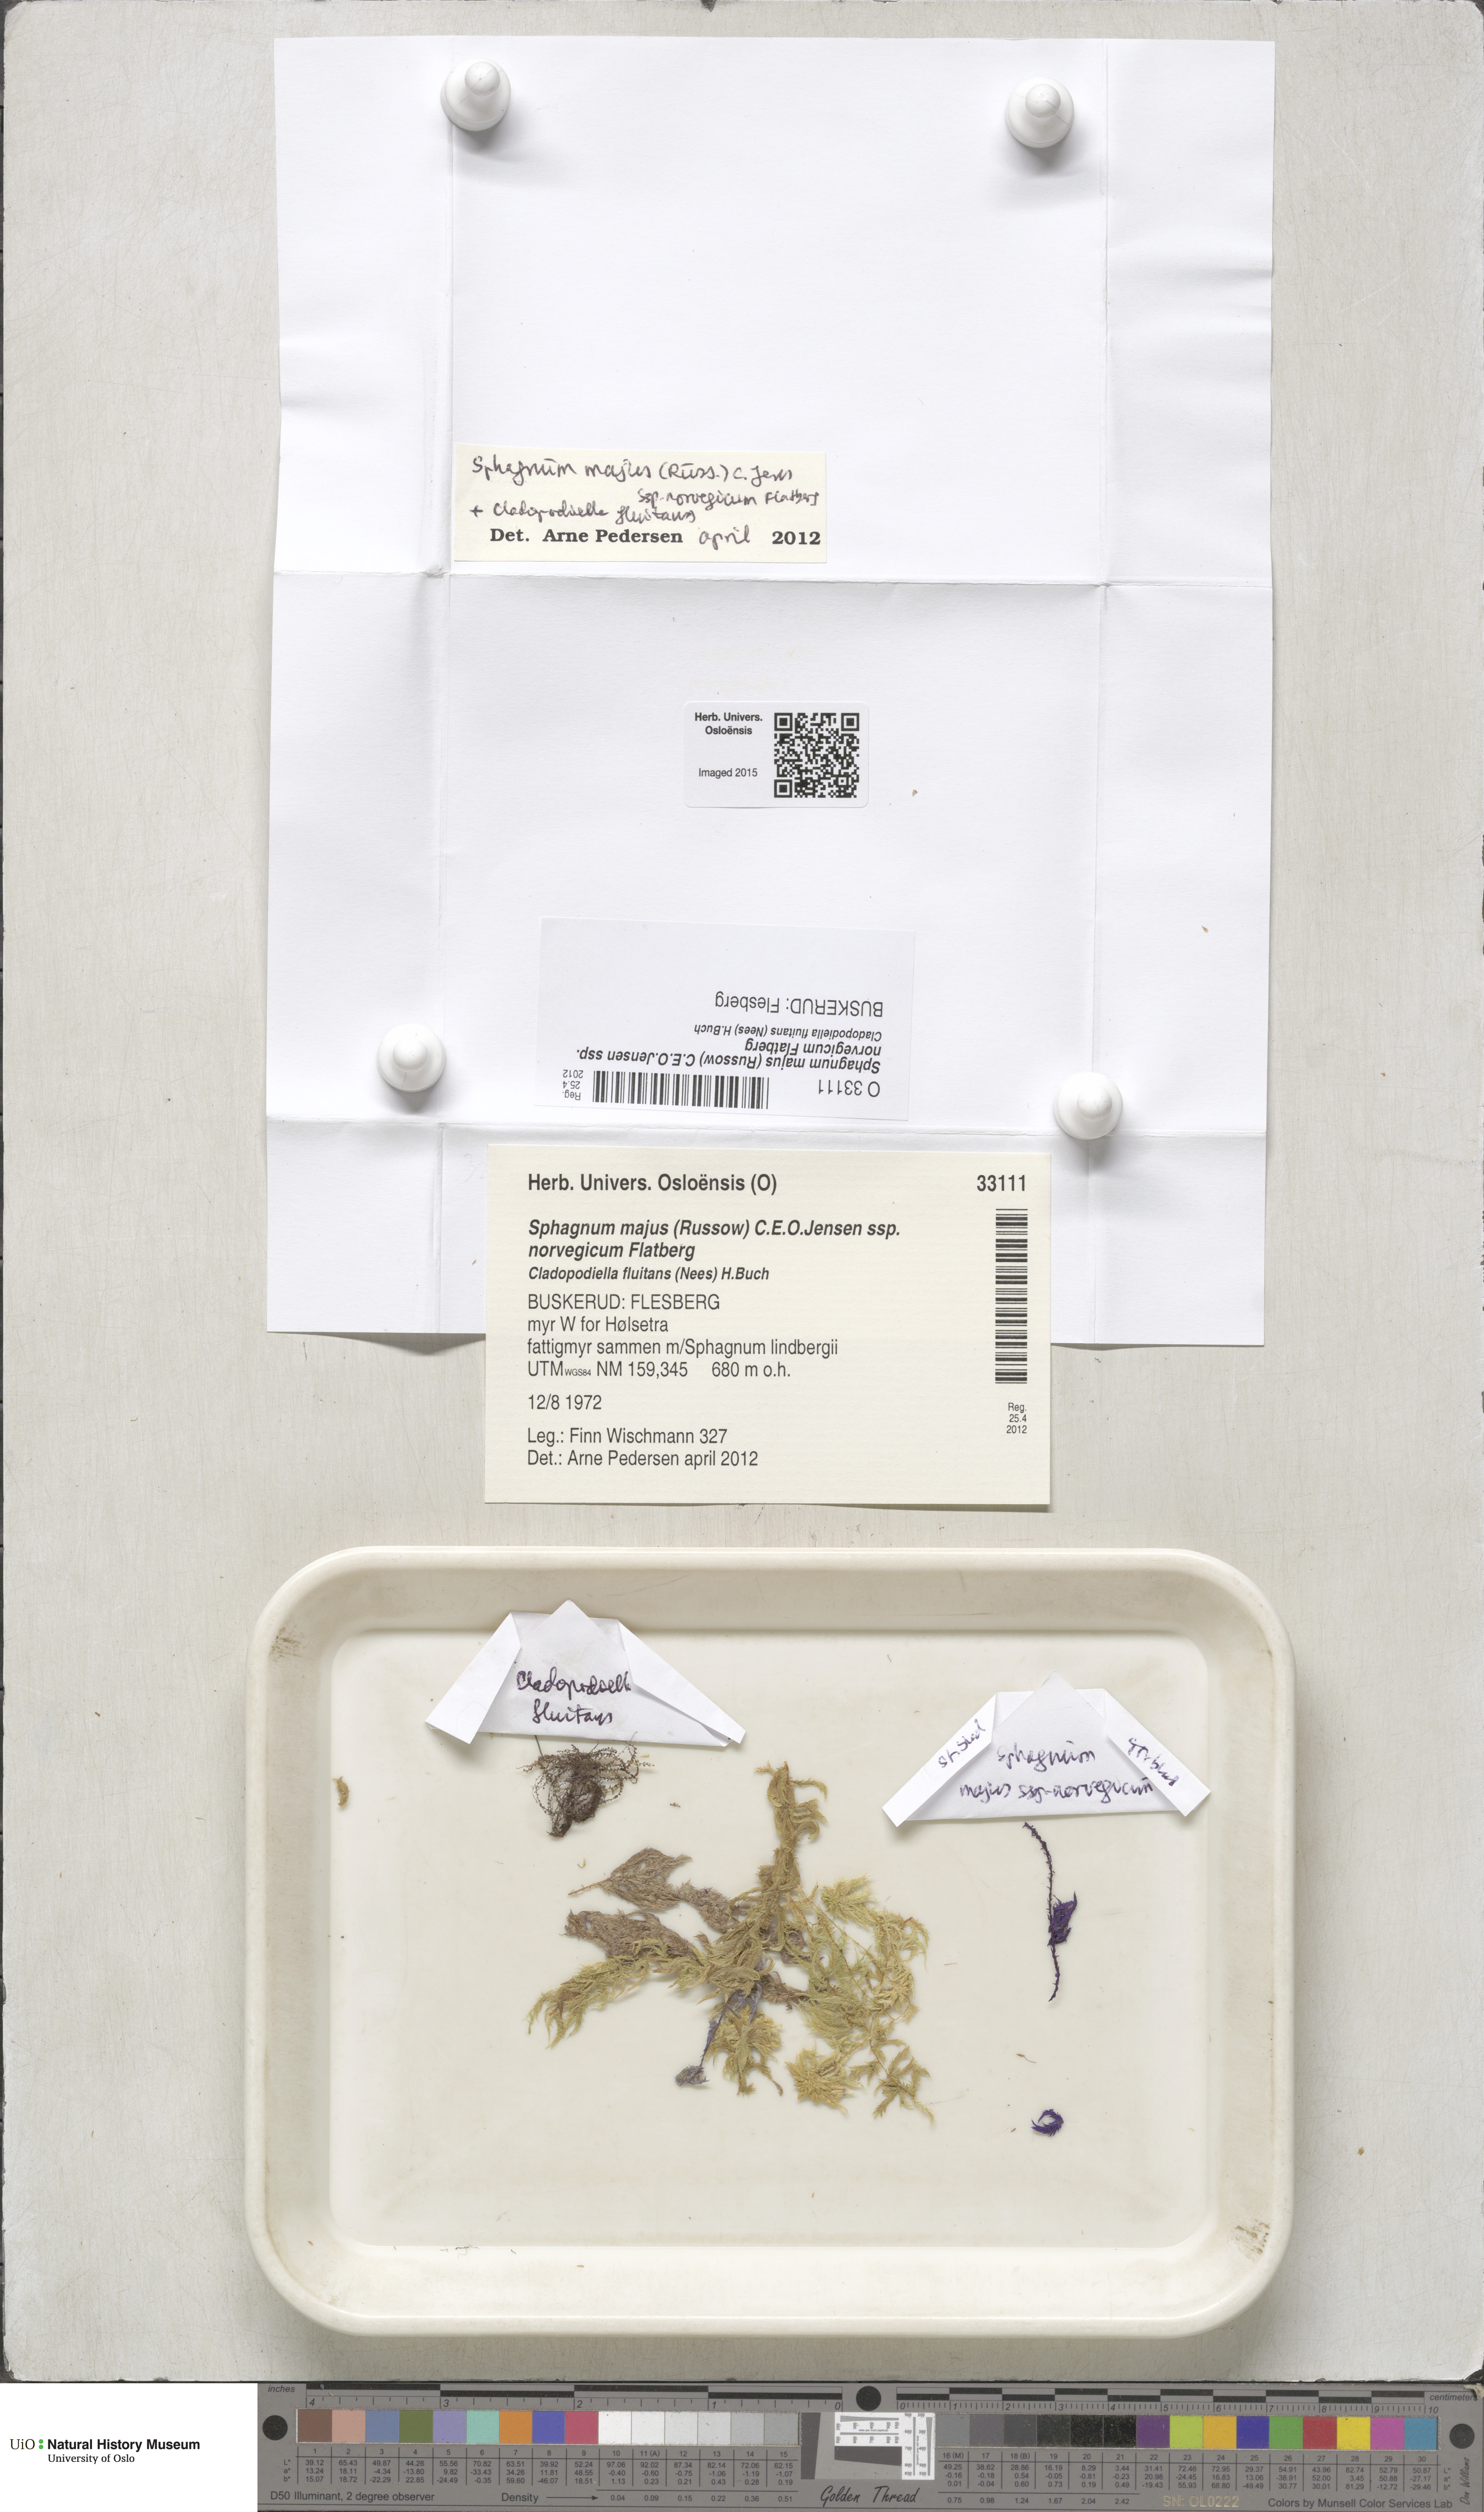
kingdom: Plantae
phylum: Bryophyta
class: Sphagnopsida
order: Sphagnales
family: Sphagnaceae
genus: Sphagnum
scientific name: Sphagnum majus
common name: Olive bog-moss
